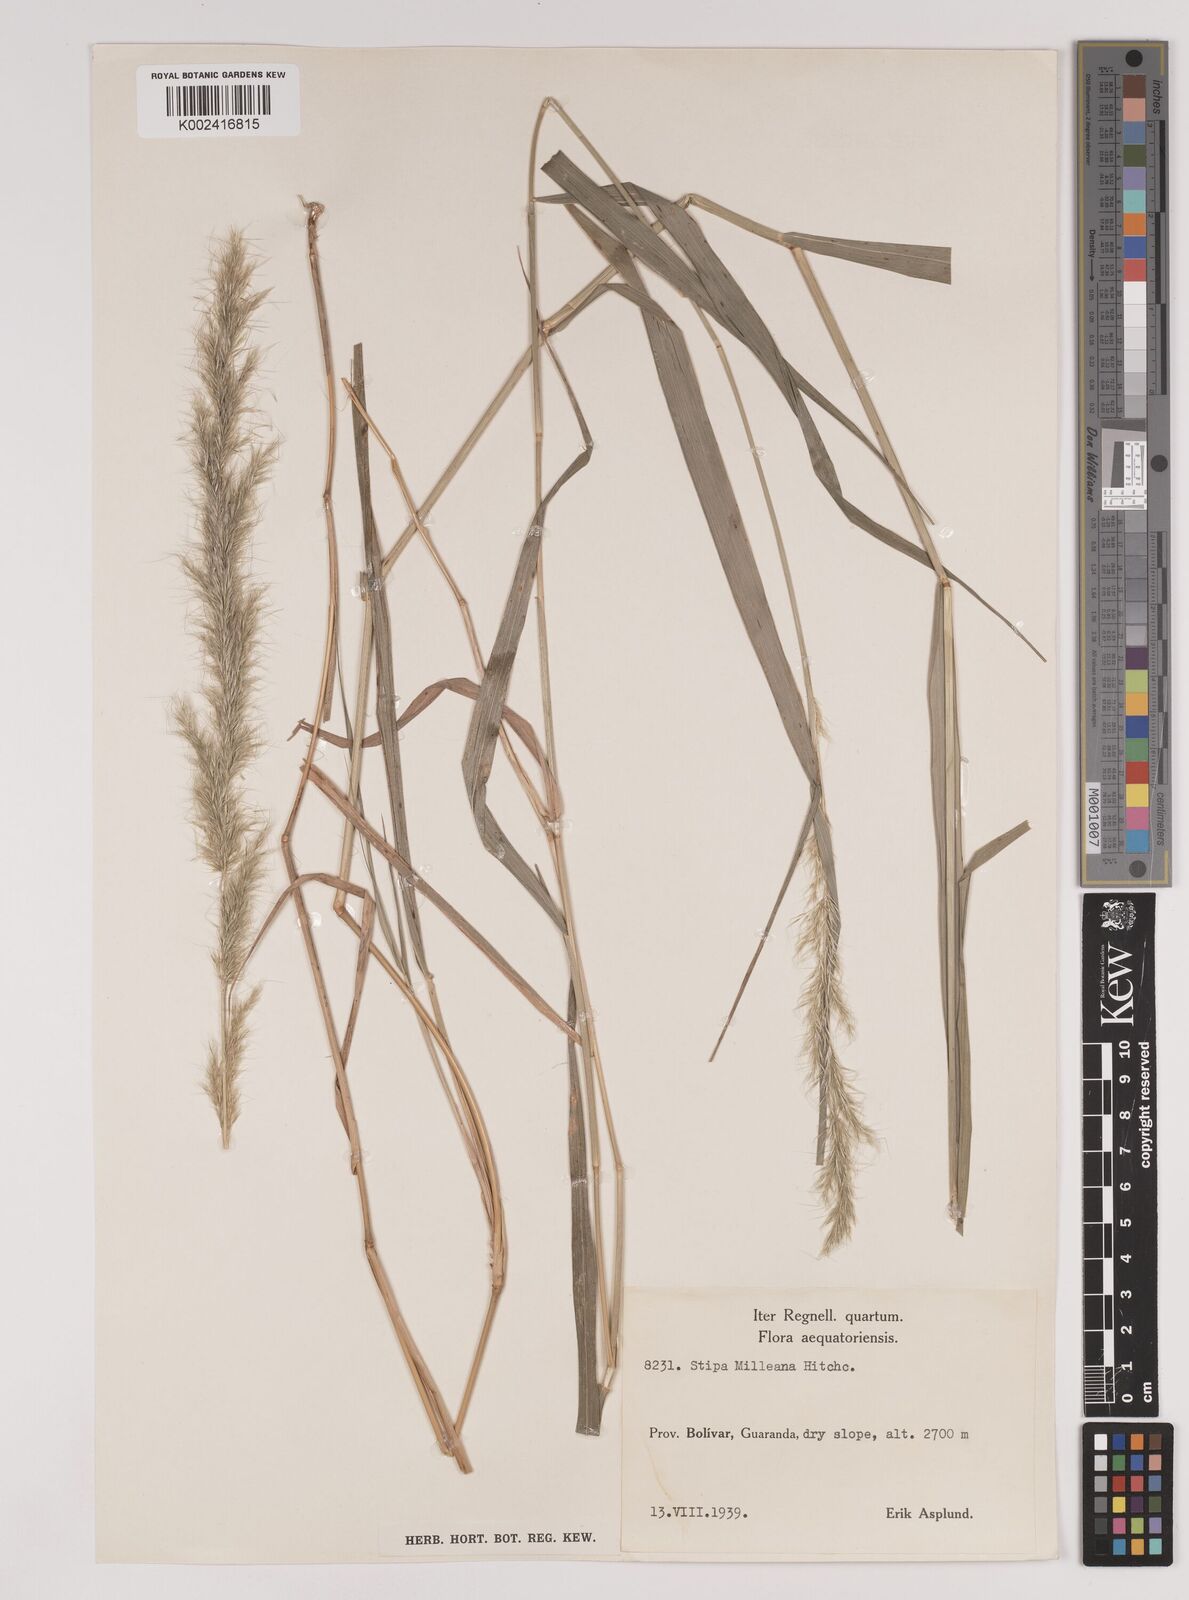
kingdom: Plantae
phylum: Tracheophyta
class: Liliopsida
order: Poales
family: Poaceae
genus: Stipa
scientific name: Stipa milleana
